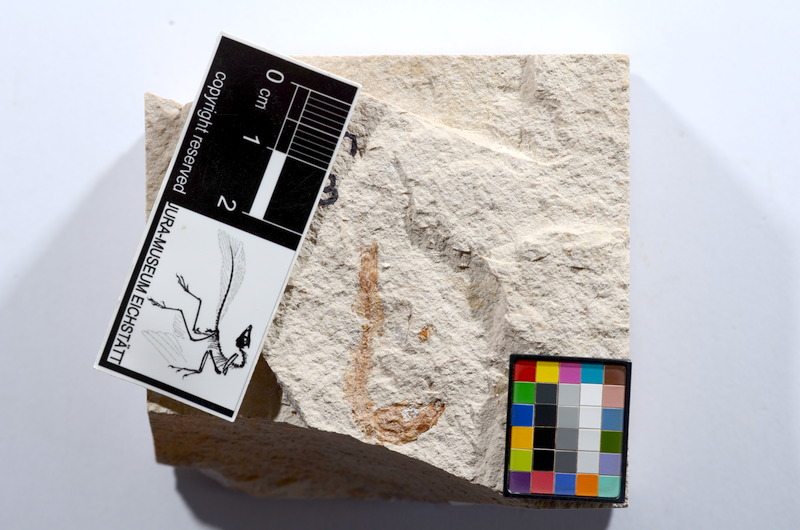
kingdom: Animalia
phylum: Chordata
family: Ascalaboidae
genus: Tharsis
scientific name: Tharsis dubius
